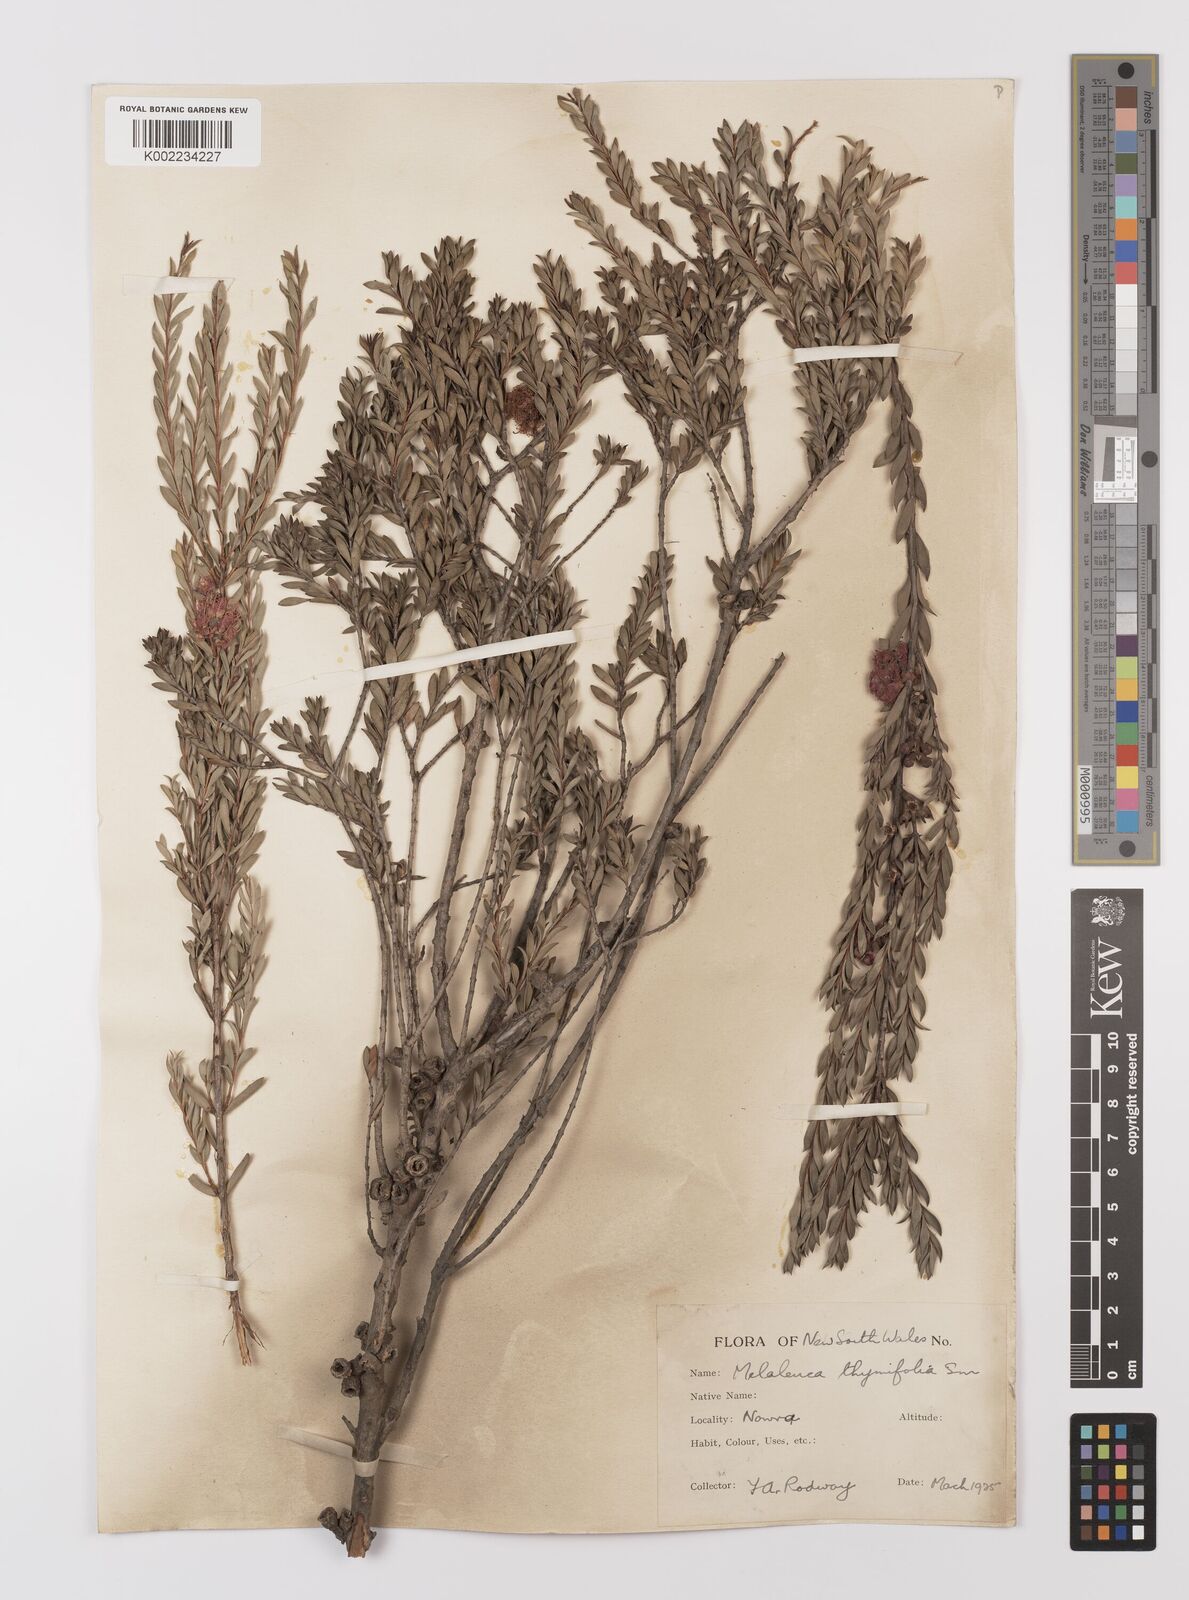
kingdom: Plantae
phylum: Tracheophyta
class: Magnoliopsida
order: Myrtales
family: Myrtaceae
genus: Melaleuca
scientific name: Melaleuca thymifolia
